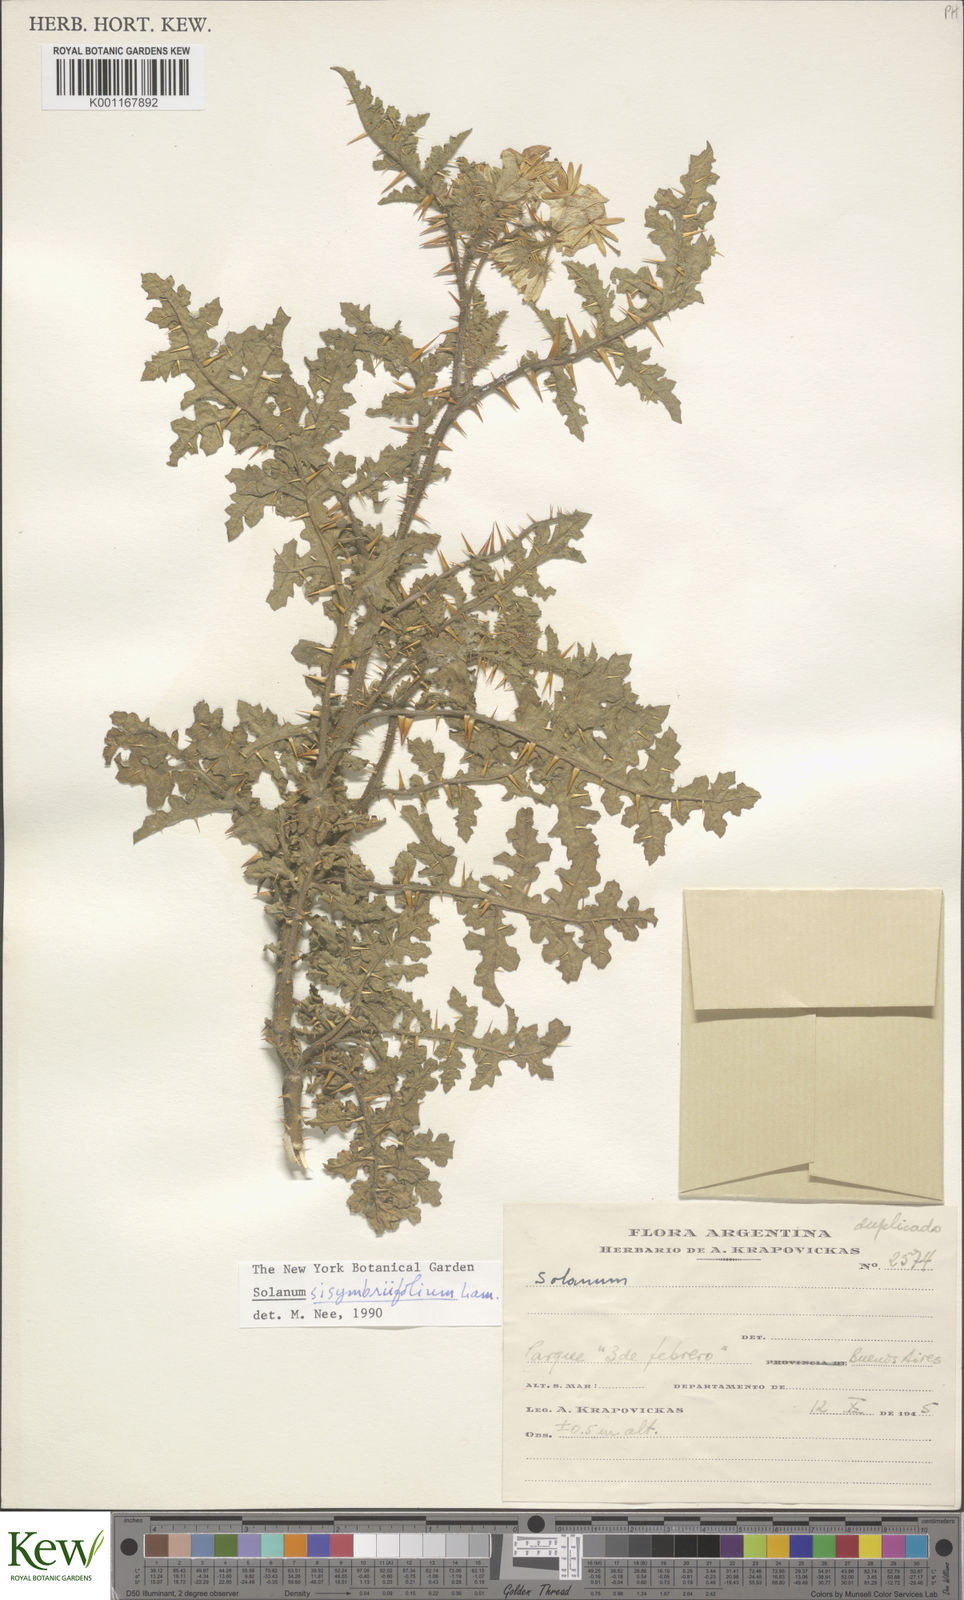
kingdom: Plantae
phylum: Tracheophyta
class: Magnoliopsida
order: Solanales
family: Solanaceae
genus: Solanum
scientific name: Solanum sisymbriifolium
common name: Red buffalo-bur
